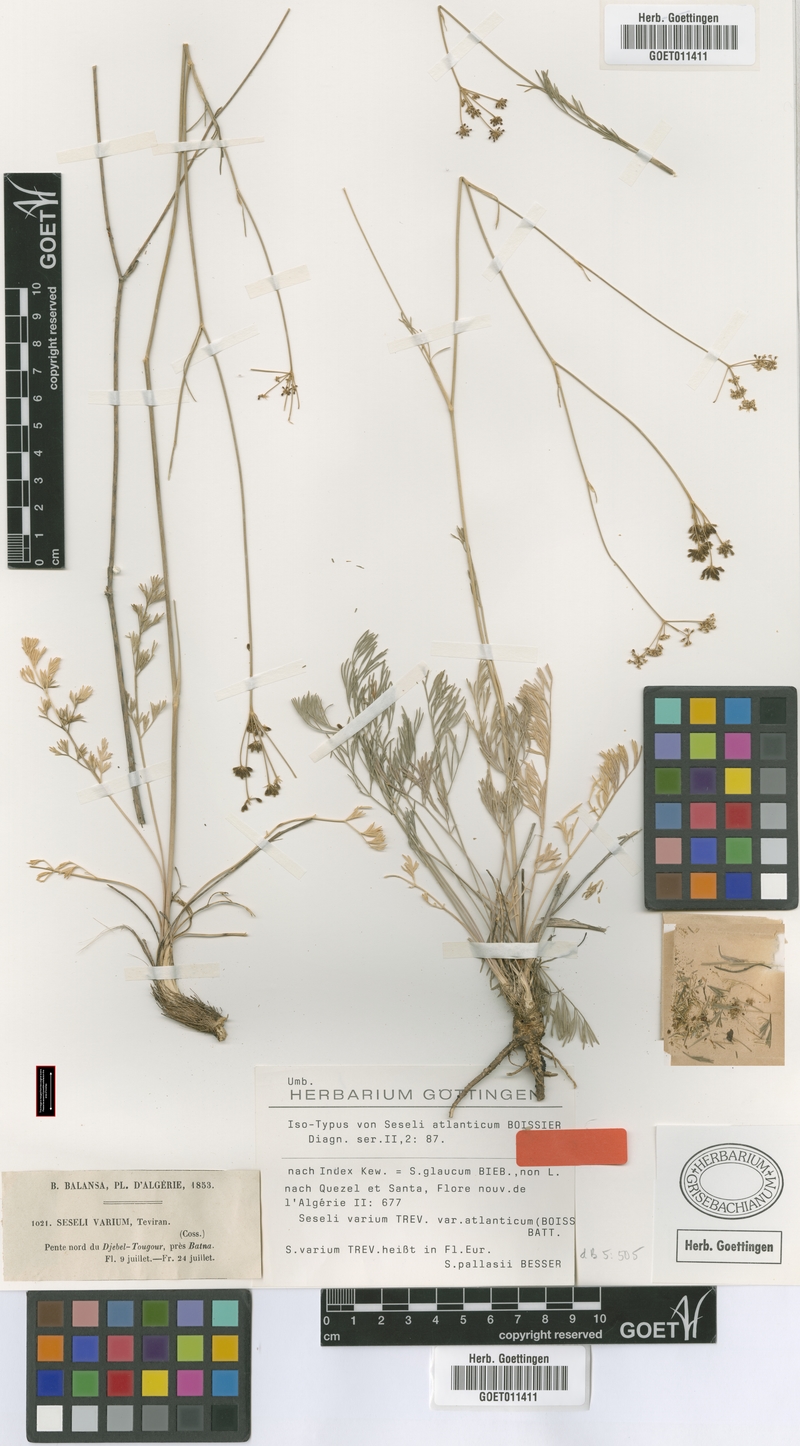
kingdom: Plantae
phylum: Tracheophyta
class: Magnoliopsida
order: Apiales
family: Apiaceae
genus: Seseli
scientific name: Seseli atlanticum
